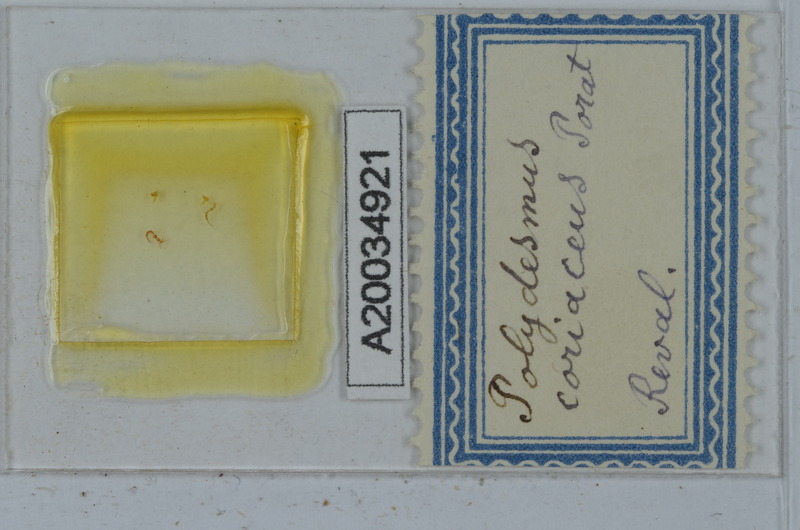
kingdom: Animalia
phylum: Arthropoda
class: Diplopoda
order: Polydesmida
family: Polydesmidae
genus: Polydesmus
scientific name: Polydesmus coriaceus
